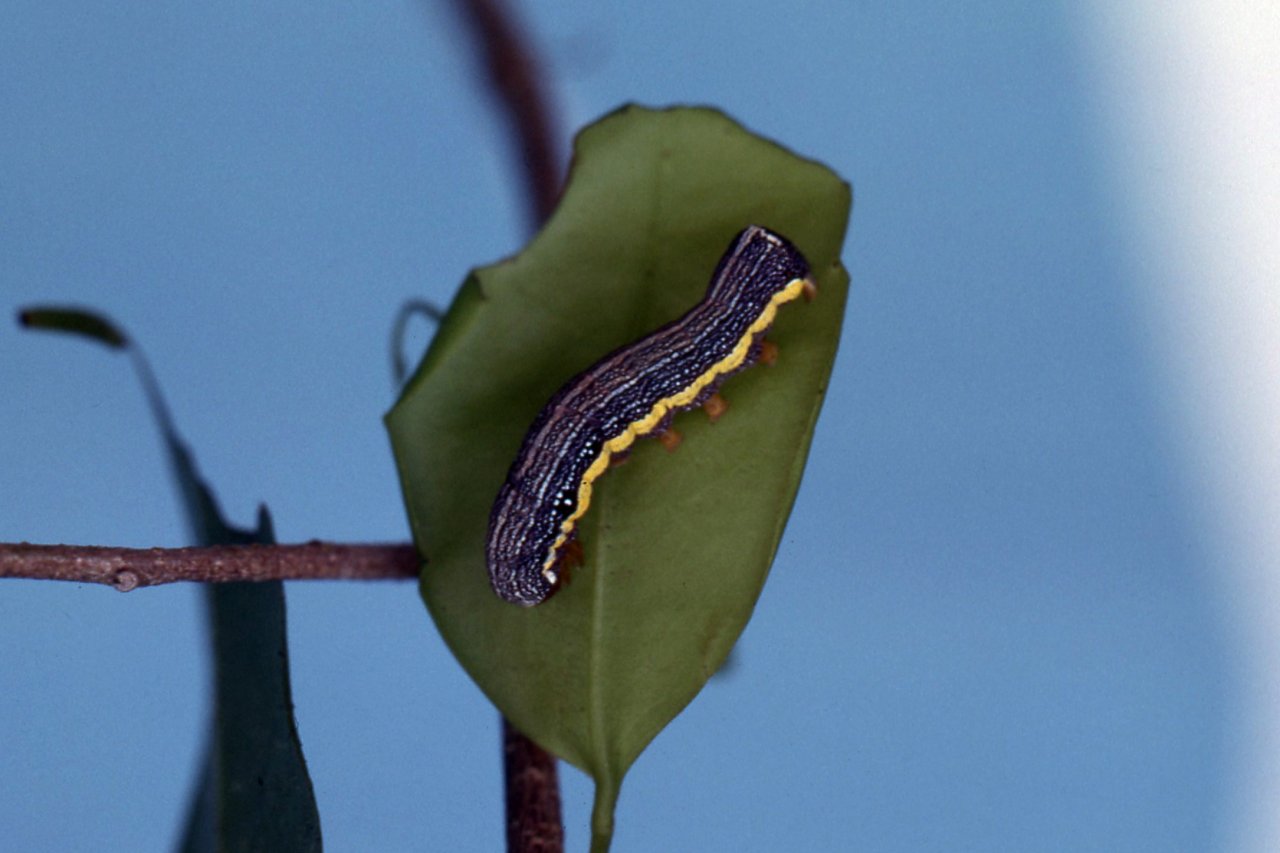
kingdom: Animalia
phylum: Arthropoda
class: Insecta
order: Lepidoptera
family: Papilionidae
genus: Protographium
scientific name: Protographium marcellinus
